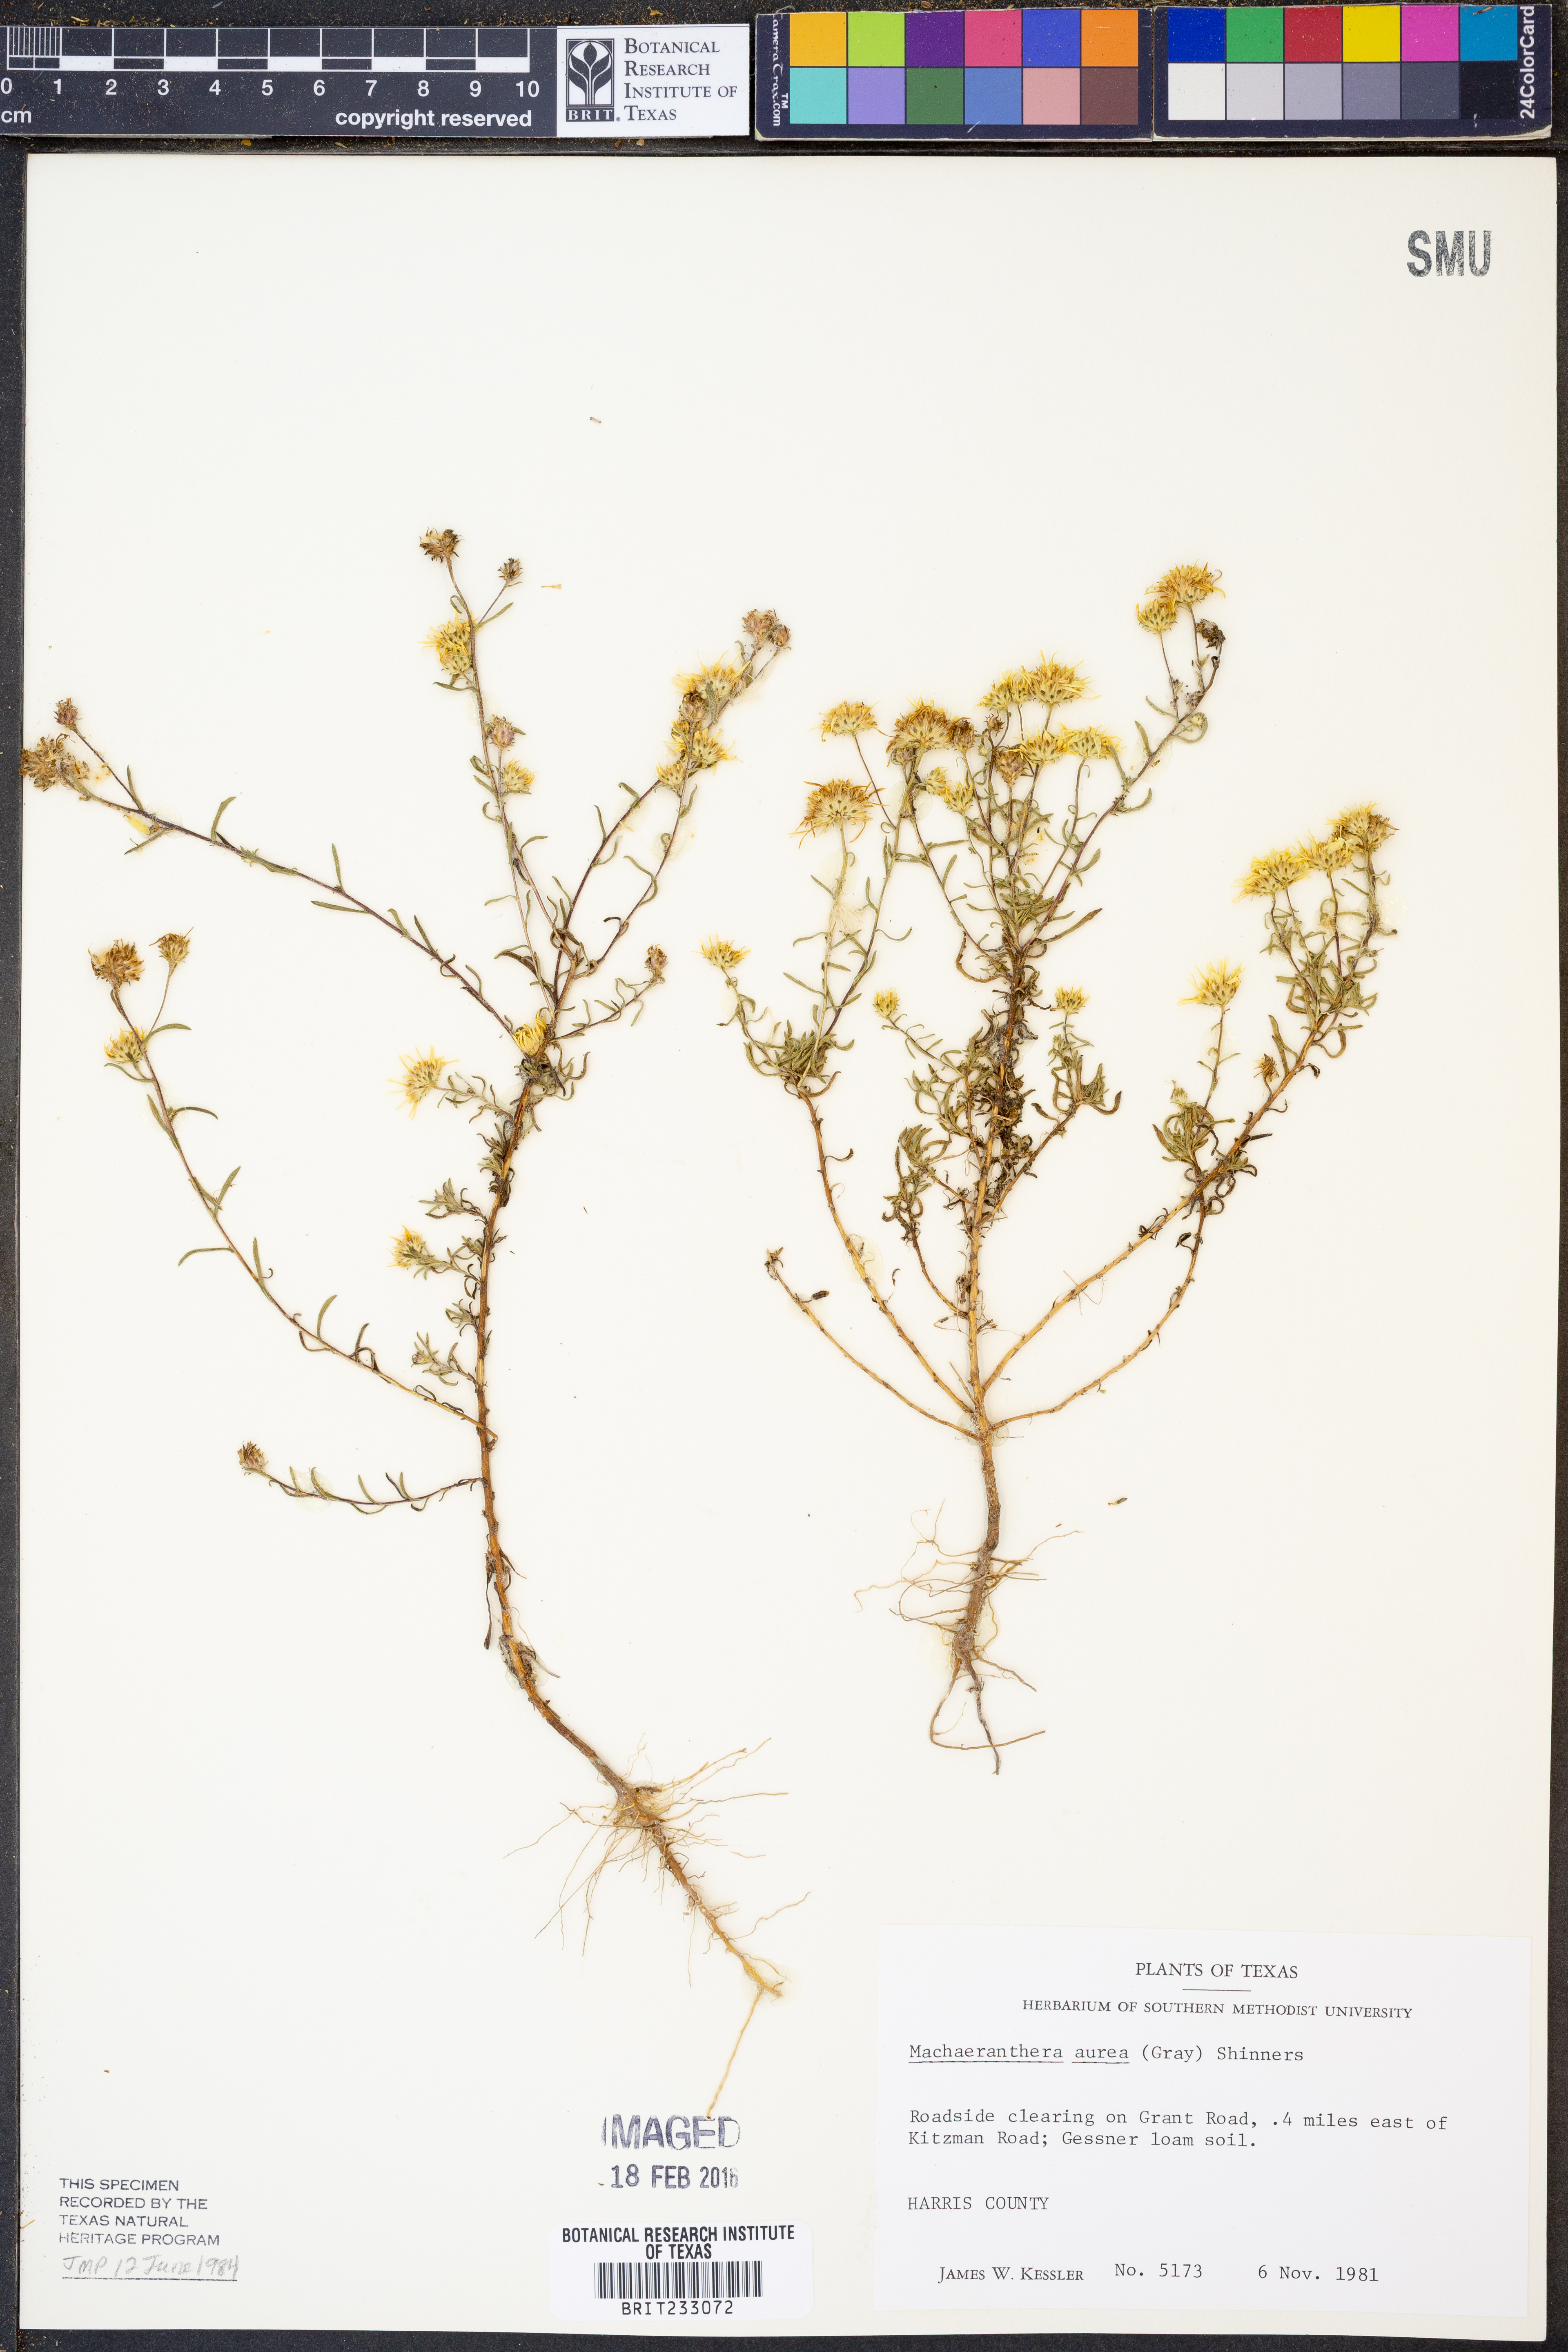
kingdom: Plantae
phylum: Tracheophyta
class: Magnoliopsida
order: Asterales
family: Asteraceae
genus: Rayjacksonia
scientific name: Rayjacksonia aurea
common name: Houston camphor daisy
